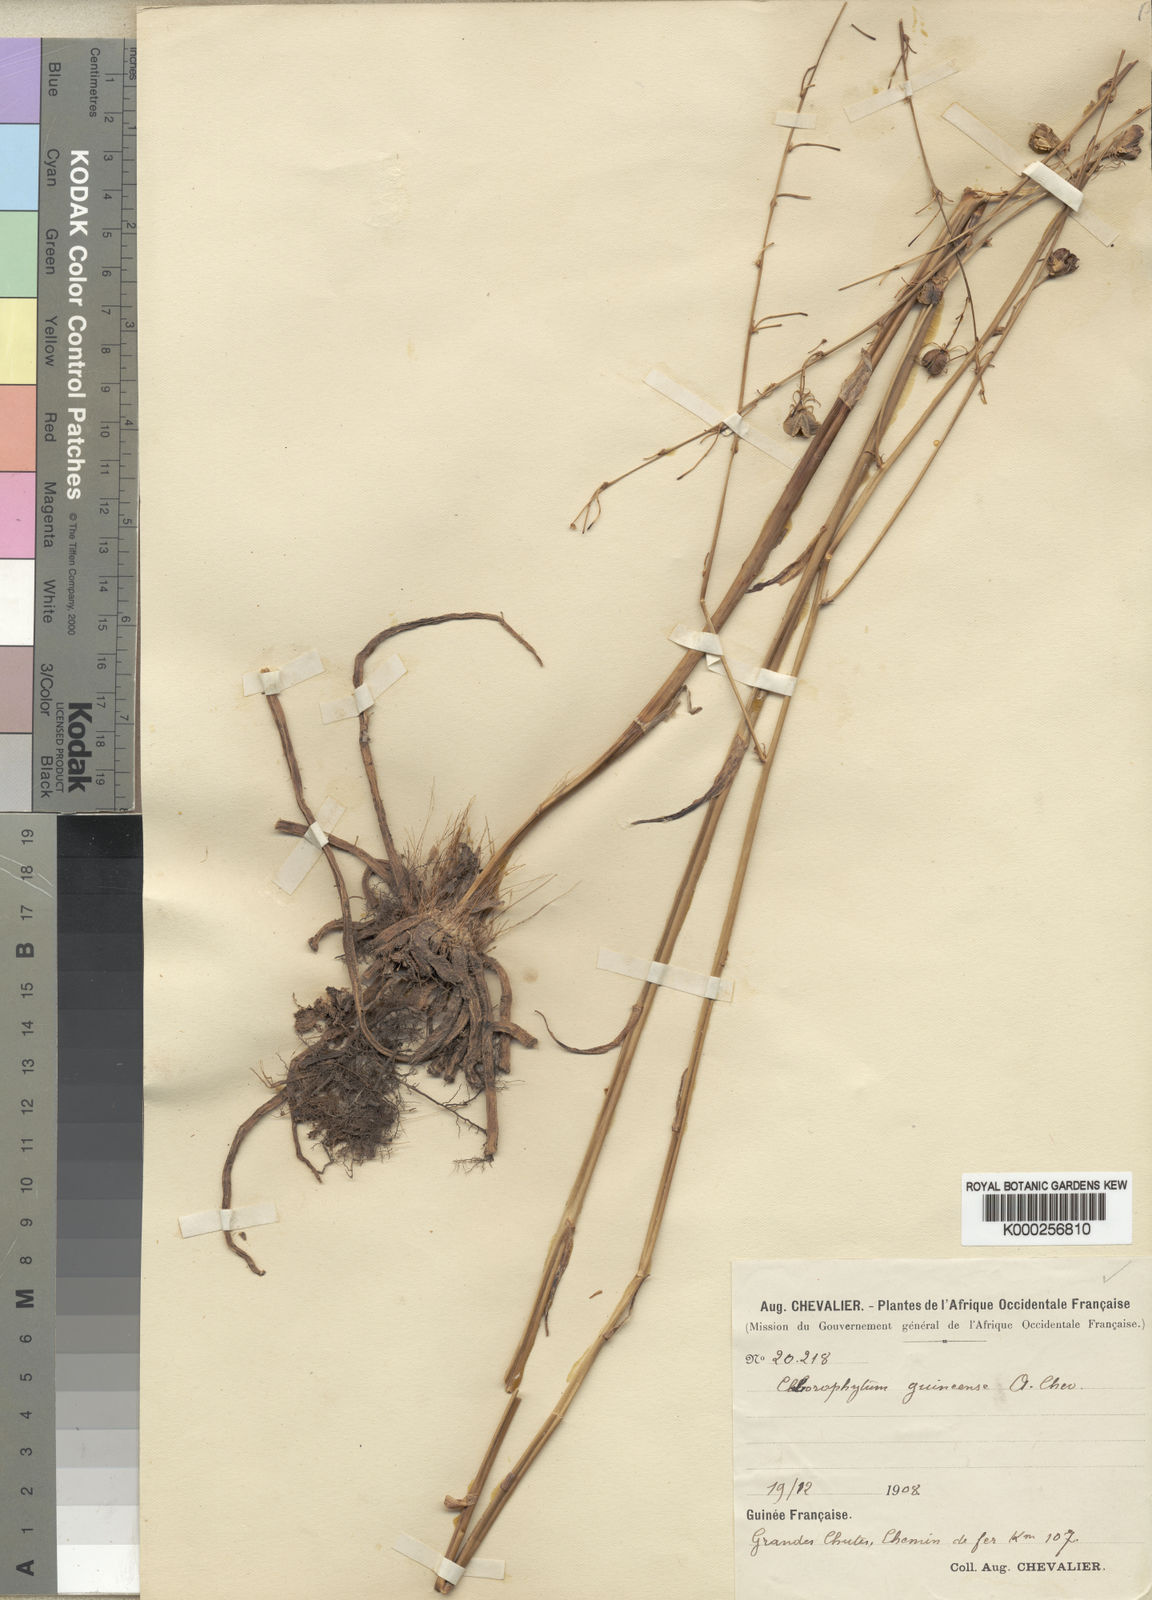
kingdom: Plantae
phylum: Tracheophyta
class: Liliopsida
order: Asparagales
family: Asparagaceae
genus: Chlorophytum
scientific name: Chlorophytum andongense
